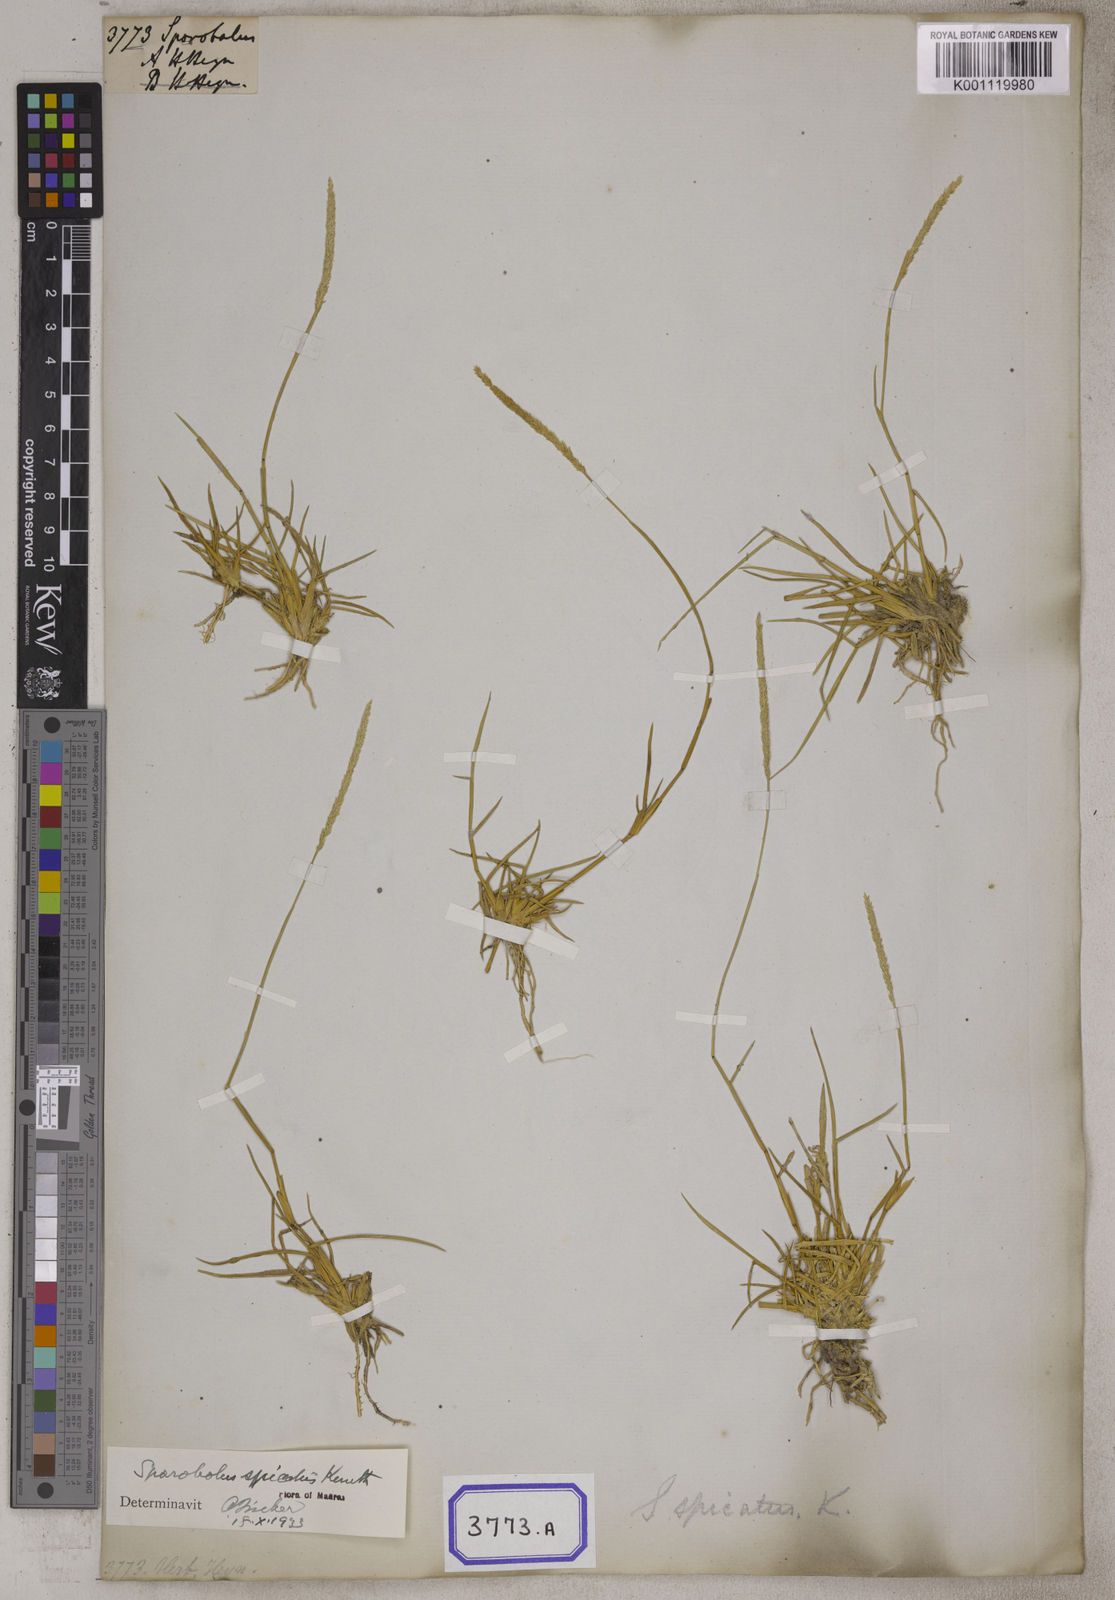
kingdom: Plantae
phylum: Tracheophyta
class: Liliopsida
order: Poales
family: Poaceae
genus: Sporobolus
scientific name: Sporobolus
